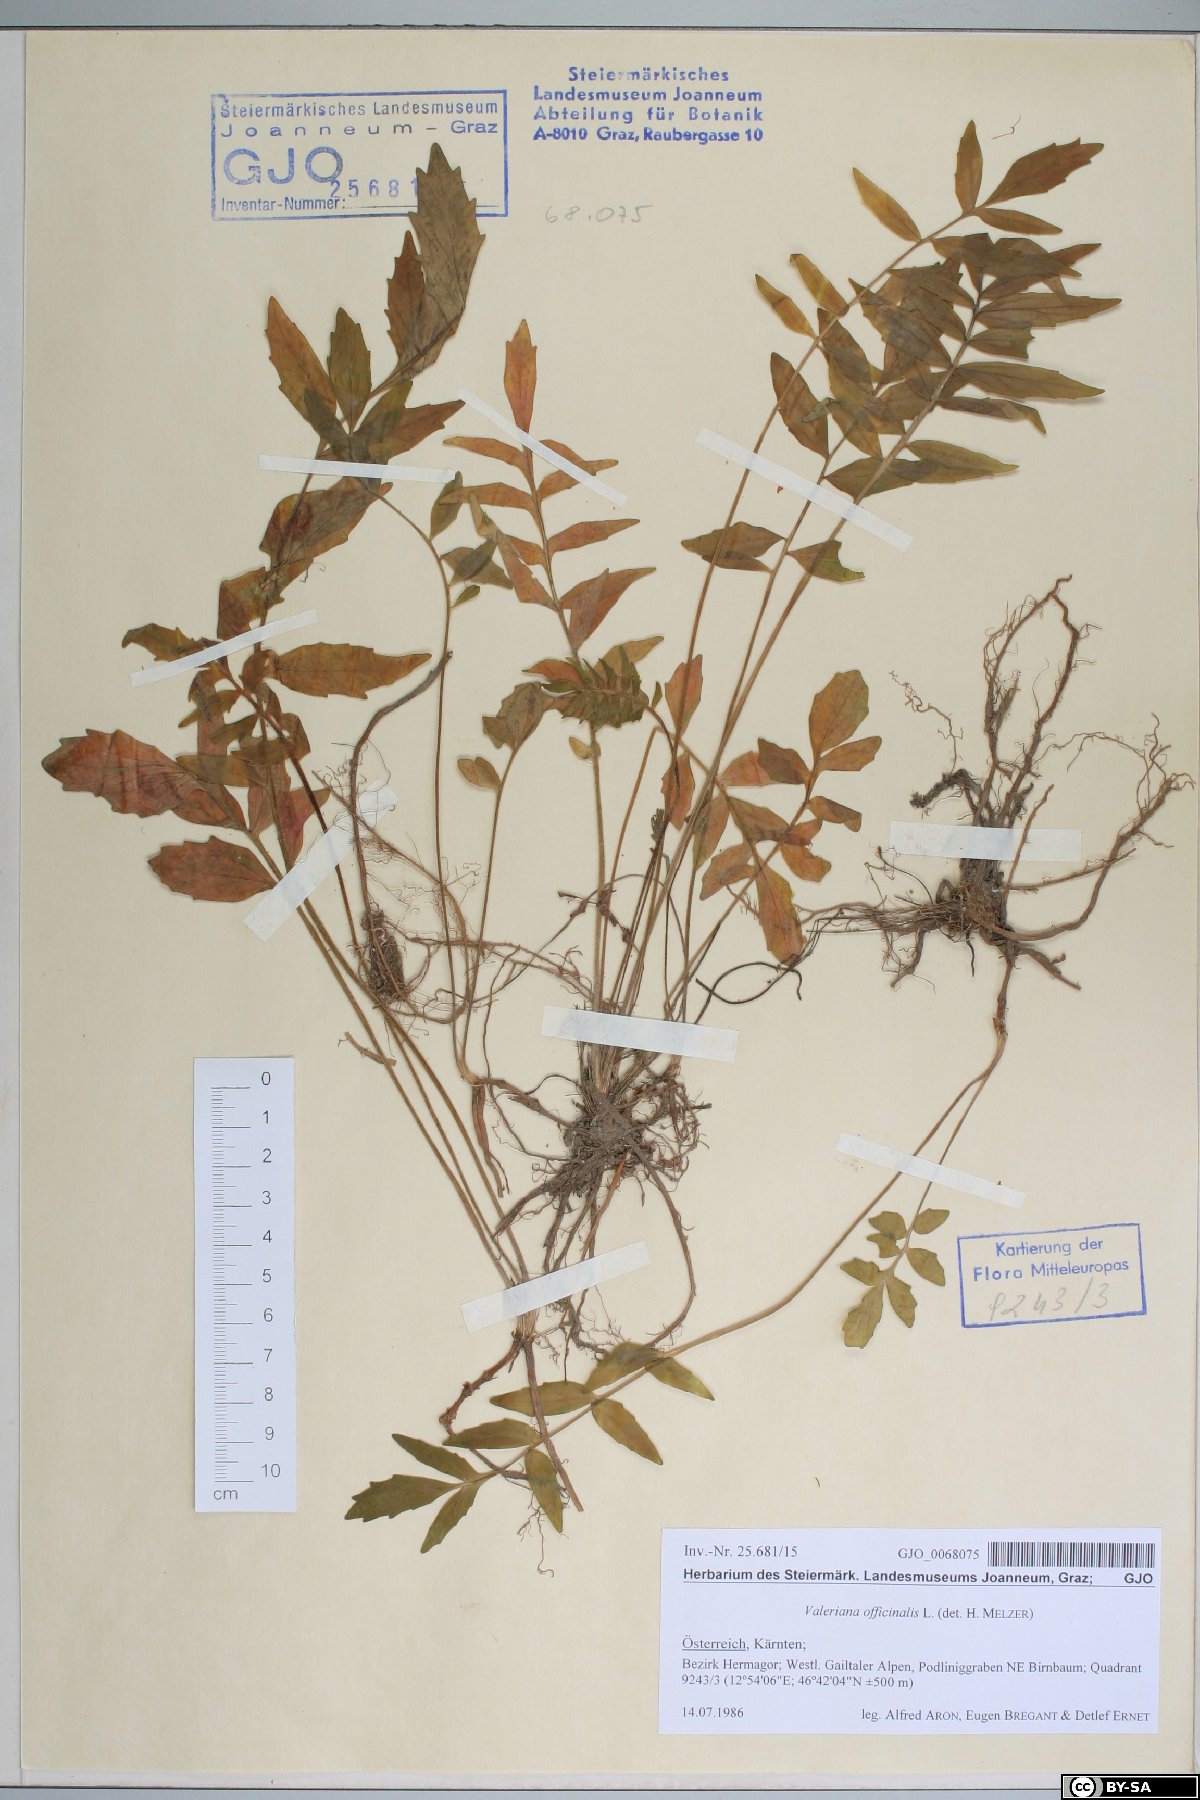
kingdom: Plantae
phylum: Tracheophyta
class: Magnoliopsida
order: Dipsacales
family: Caprifoliaceae
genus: Valeriana
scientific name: Valeriana officinalis
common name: Common valerian
